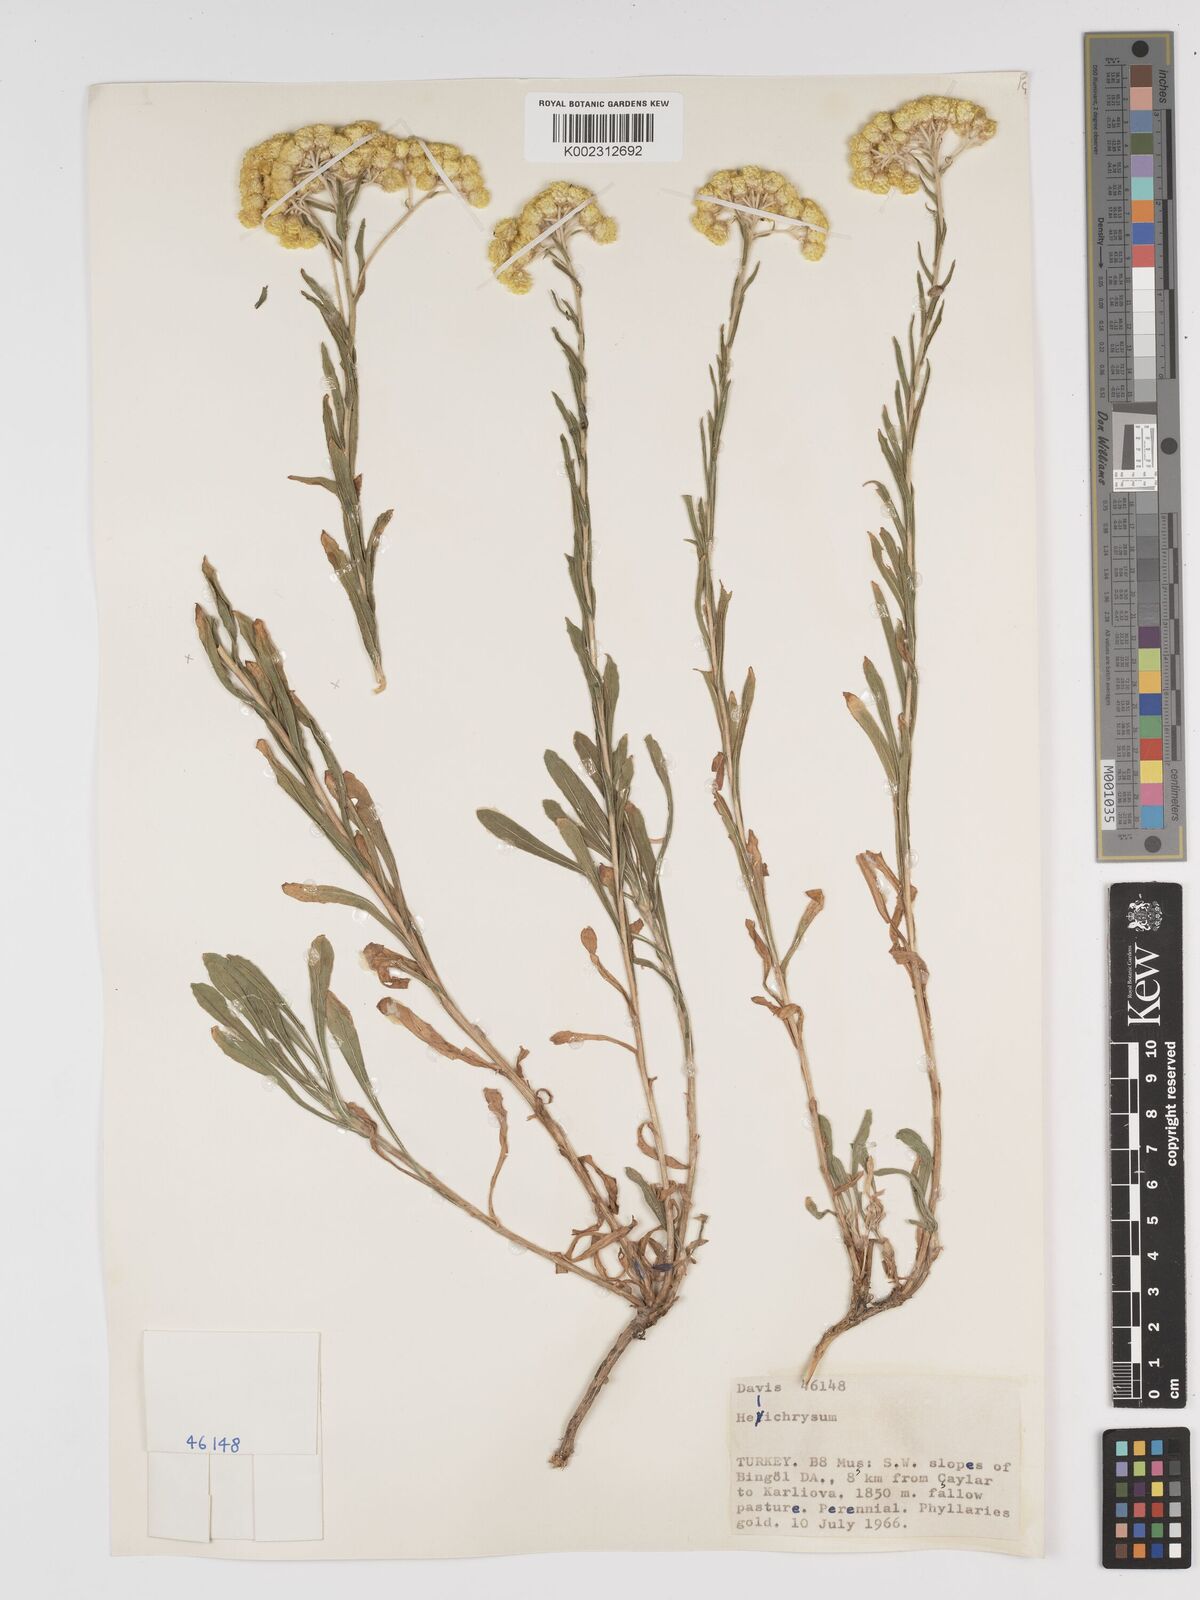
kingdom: Plantae
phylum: Tracheophyta
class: Magnoliopsida
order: Asterales
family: Asteraceae
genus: Helichrysum
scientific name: Helichrysum armenium
